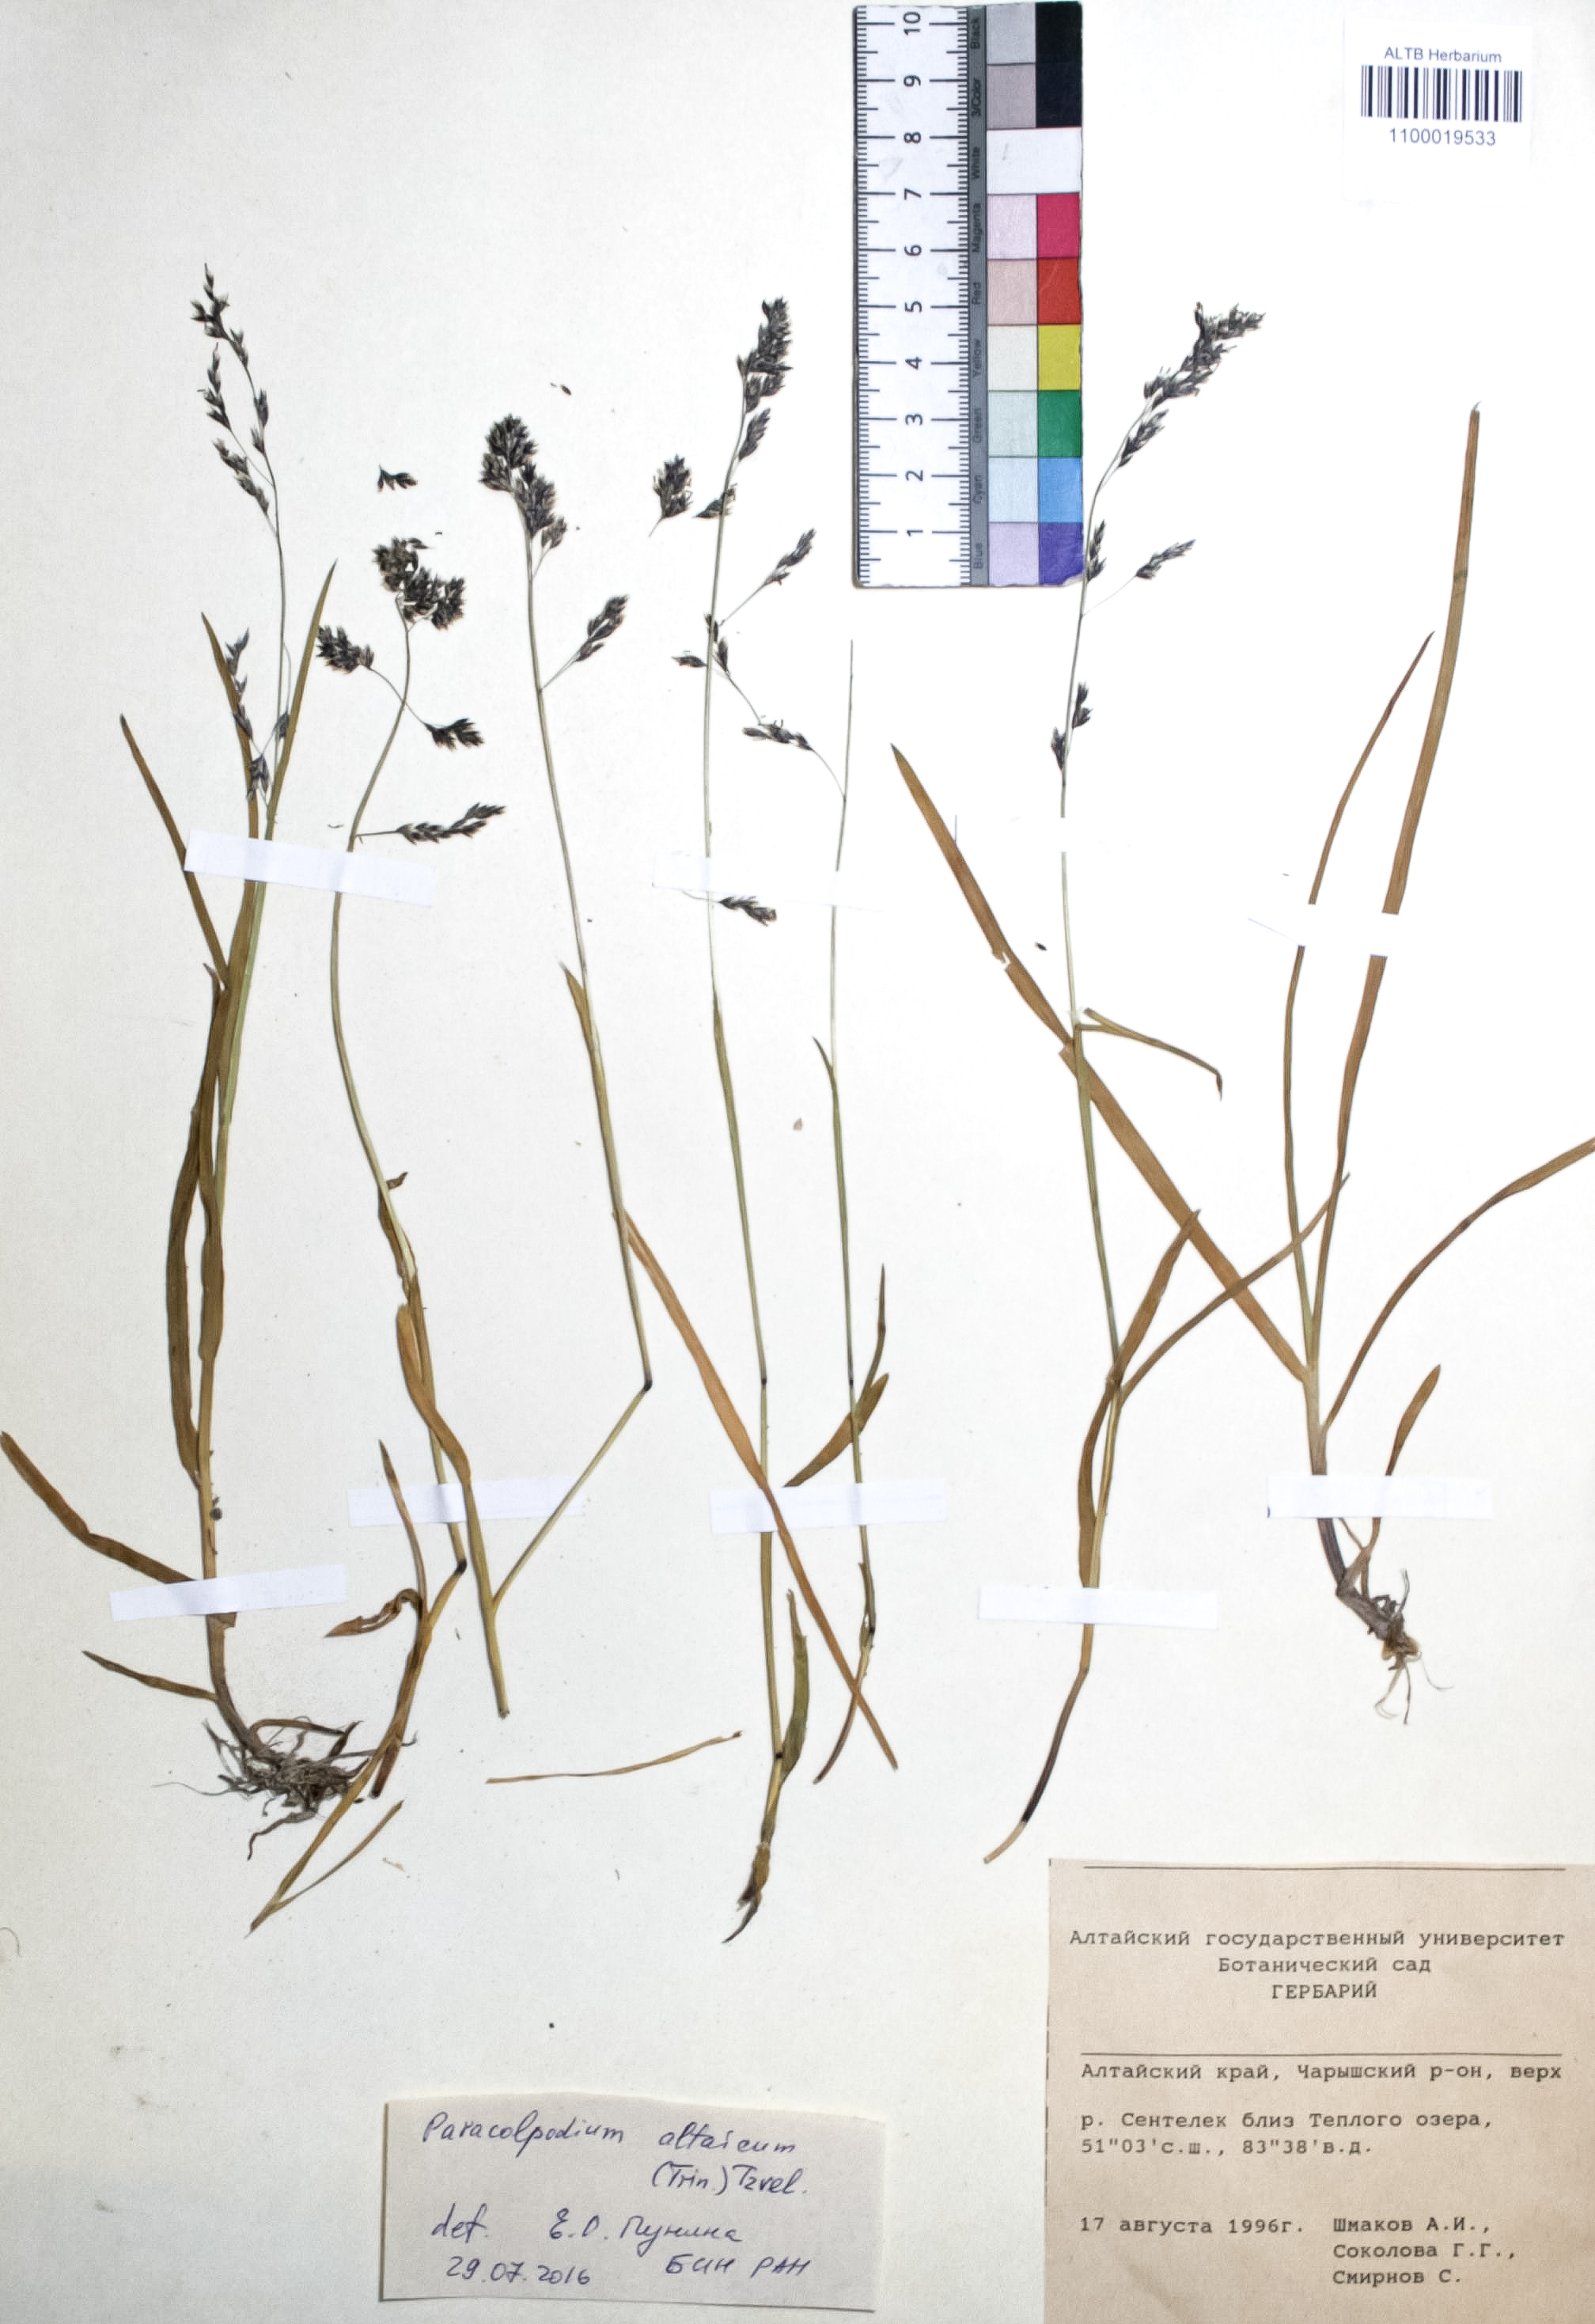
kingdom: Plantae
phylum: Tracheophyta
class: Liliopsida
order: Poales
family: Poaceae
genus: Paracolpodium
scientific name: Paracolpodium altaicum
